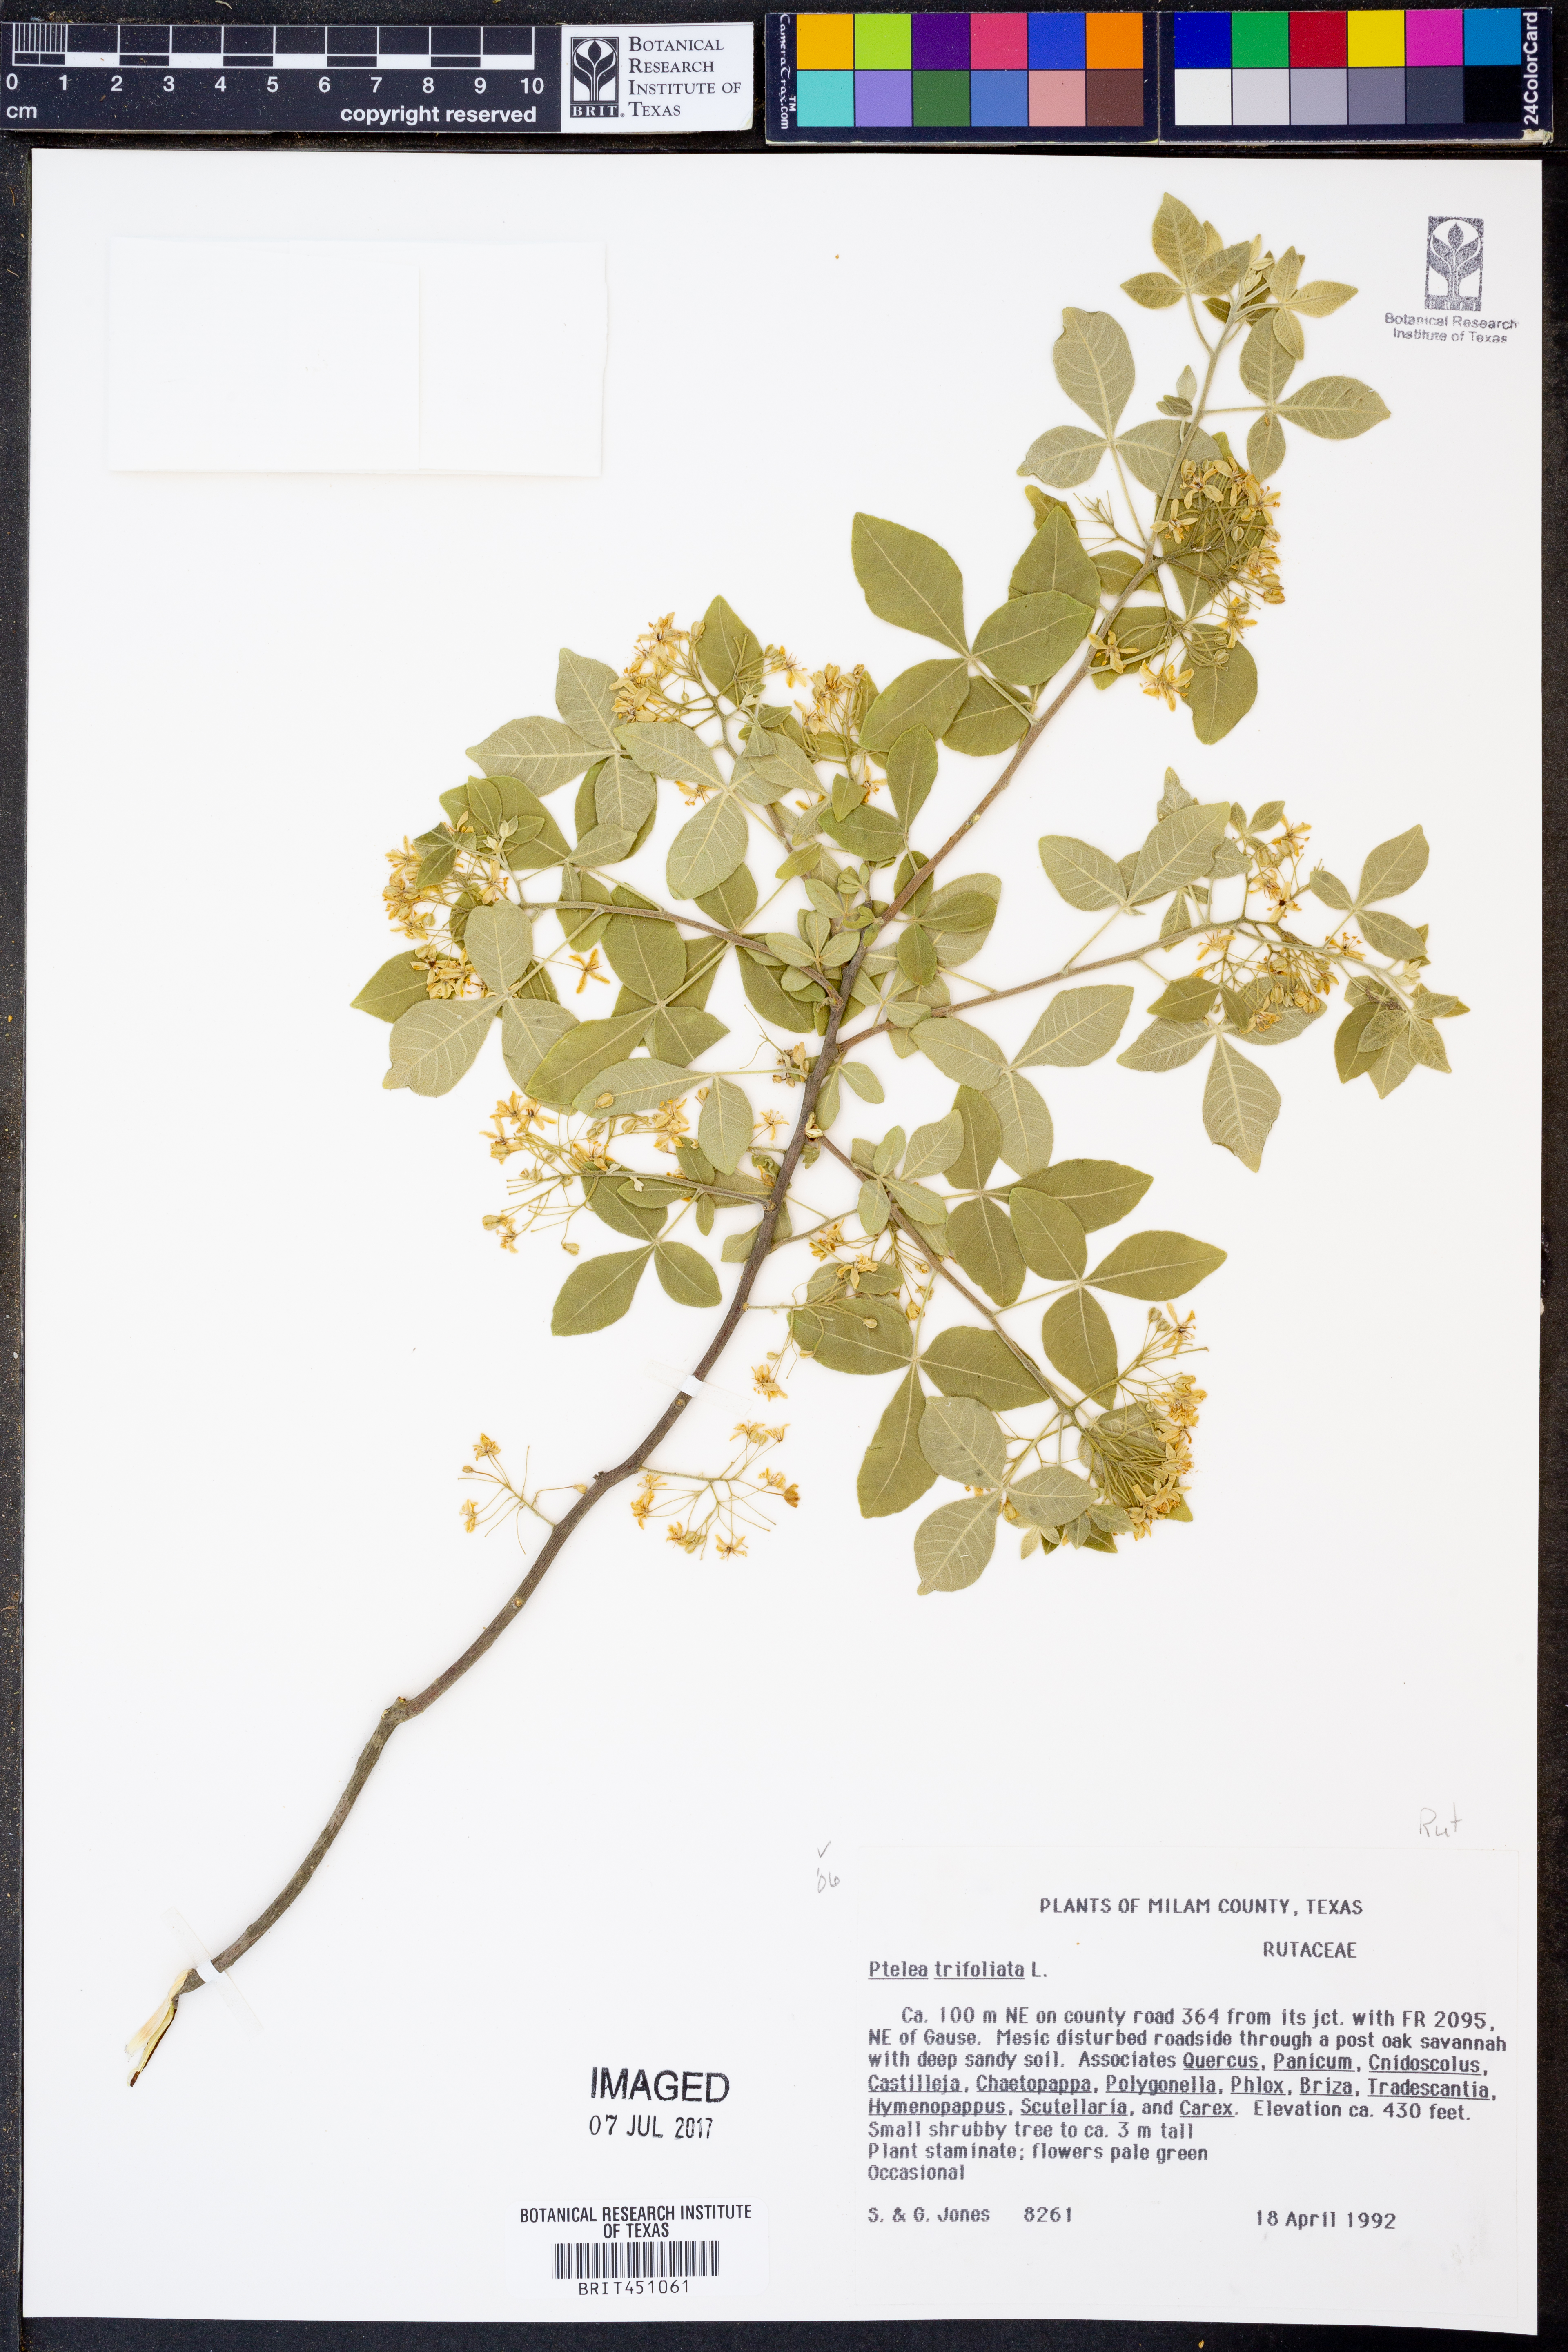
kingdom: Plantae
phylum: Tracheophyta
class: Magnoliopsida
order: Sapindales
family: Rutaceae
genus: Ptelea
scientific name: Ptelea trifoliata
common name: Common hop-tree
